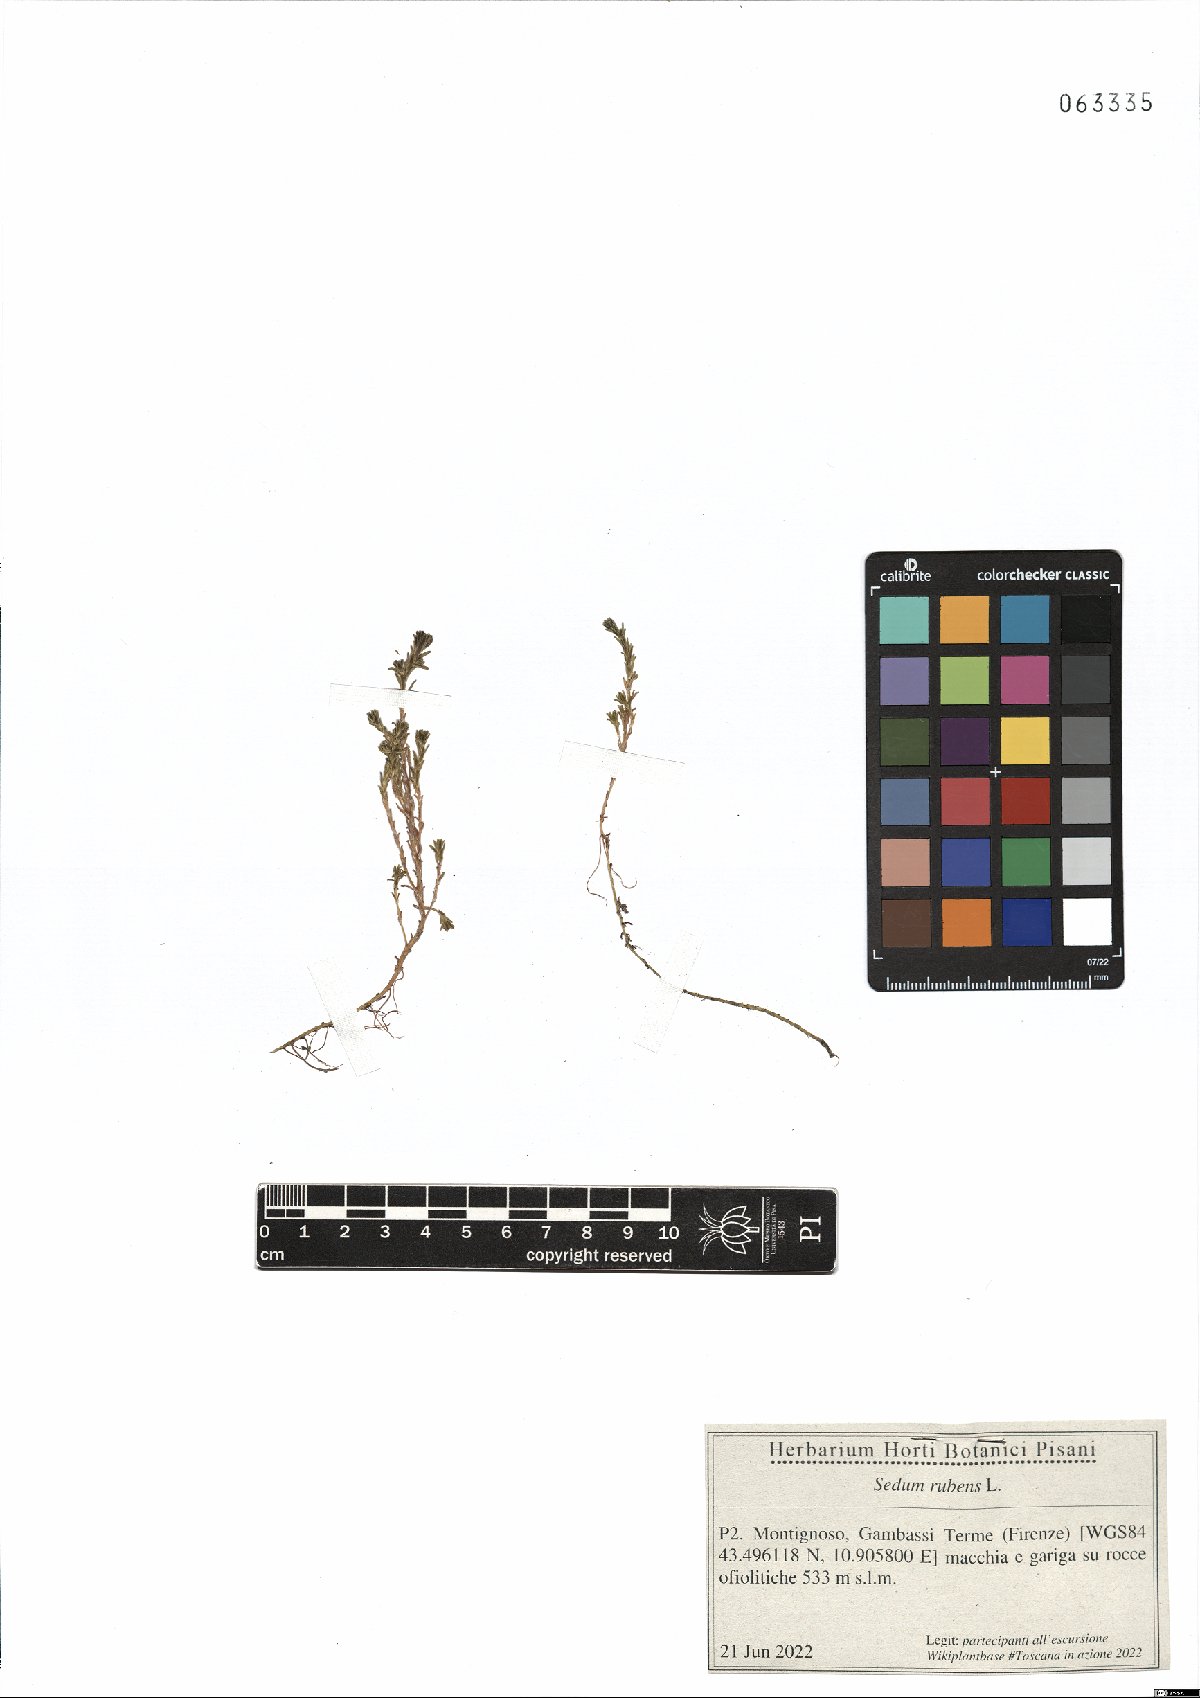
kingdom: Plantae
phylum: Tracheophyta
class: Magnoliopsida
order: Saxifragales
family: Crassulaceae
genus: Sedum
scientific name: Sedum rubens
